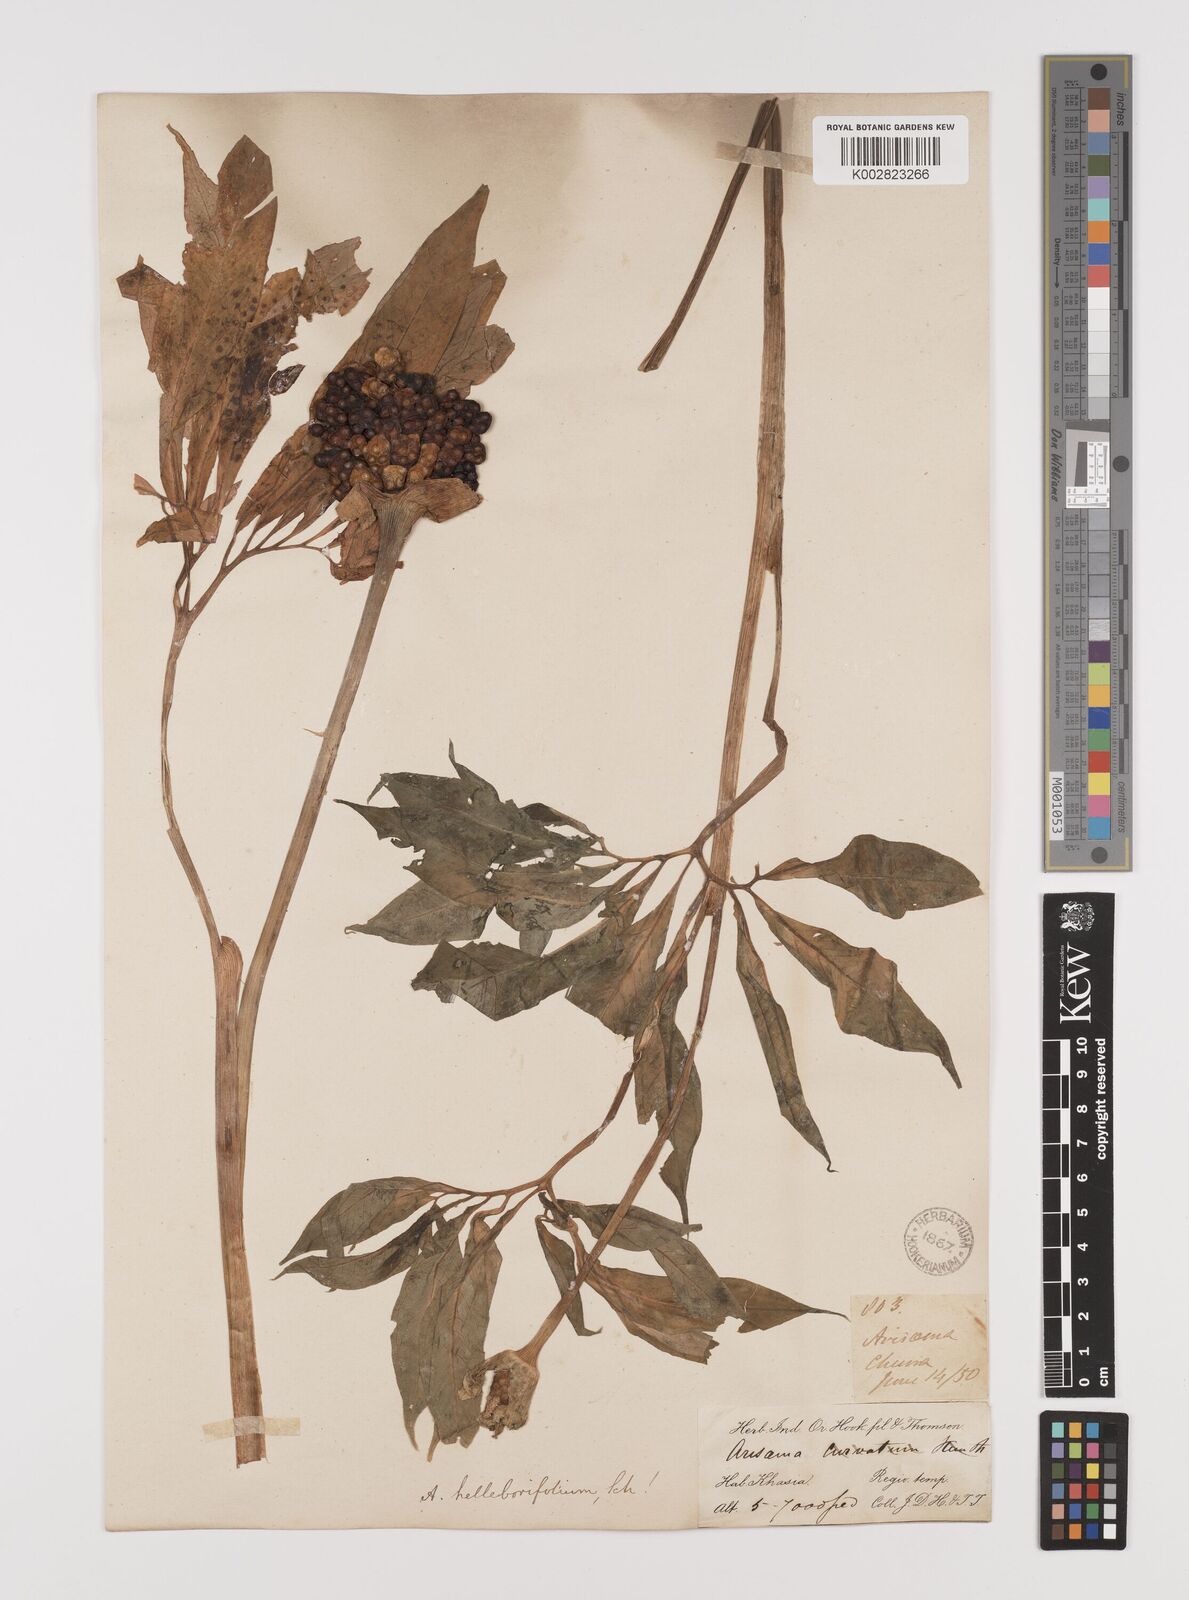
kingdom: Plantae
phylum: Tracheophyta
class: Liliopsida
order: Alismatales
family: Araceae
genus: Arisaema
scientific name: Arisaema tortuosum
